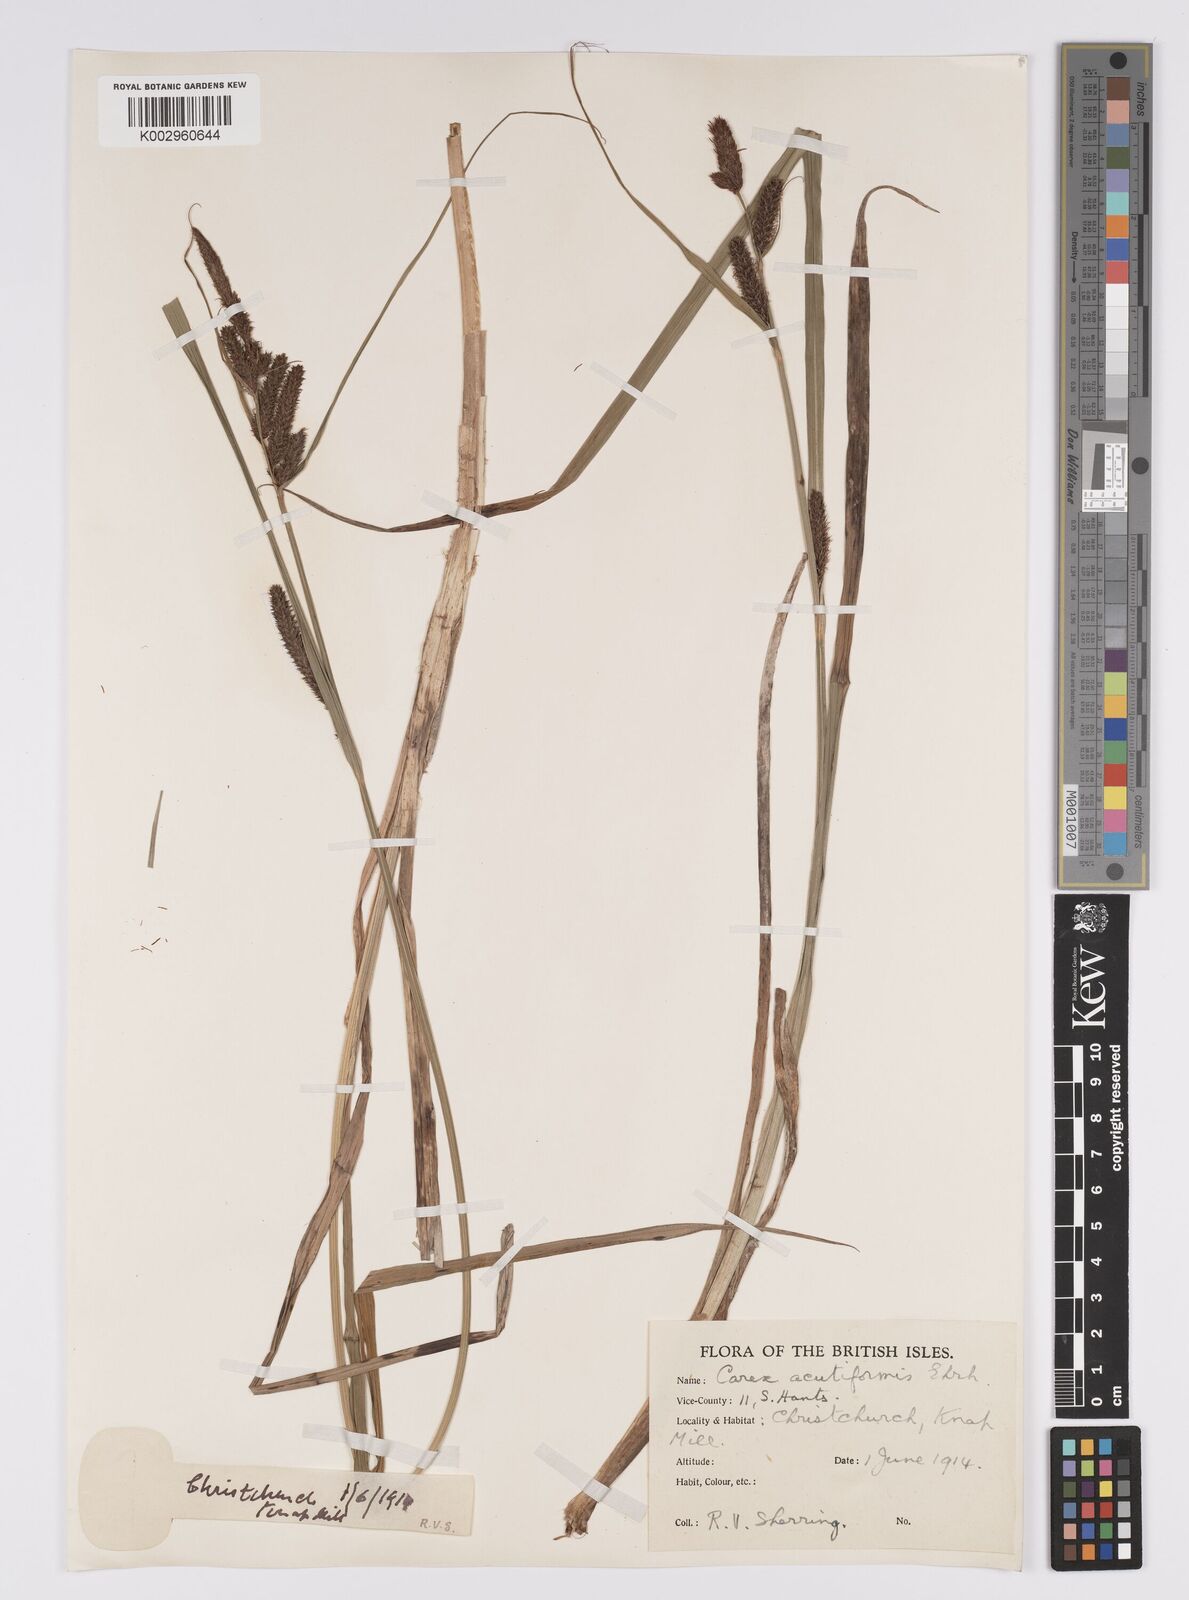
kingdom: Plantae
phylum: Tracheophyta
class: Liliopsida
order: Poales
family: Cyperaceae
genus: Carex
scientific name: Carex acutiformis
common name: Lesser pond-sedge
